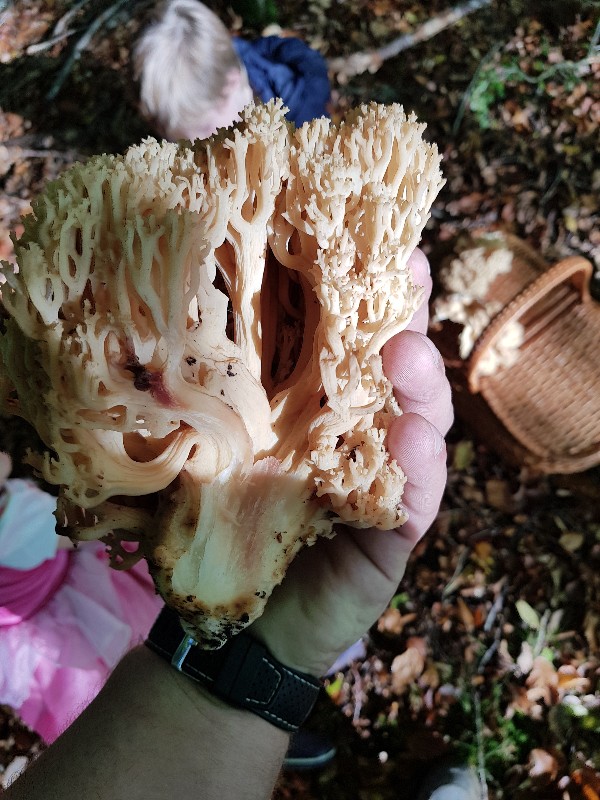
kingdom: Fungi
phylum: Basidiomycota
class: Agaricomycetes
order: Gomphales
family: Gomphaceae
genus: Ramaria
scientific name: Ramaria sanguinea
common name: blodplettet koralsvamp
